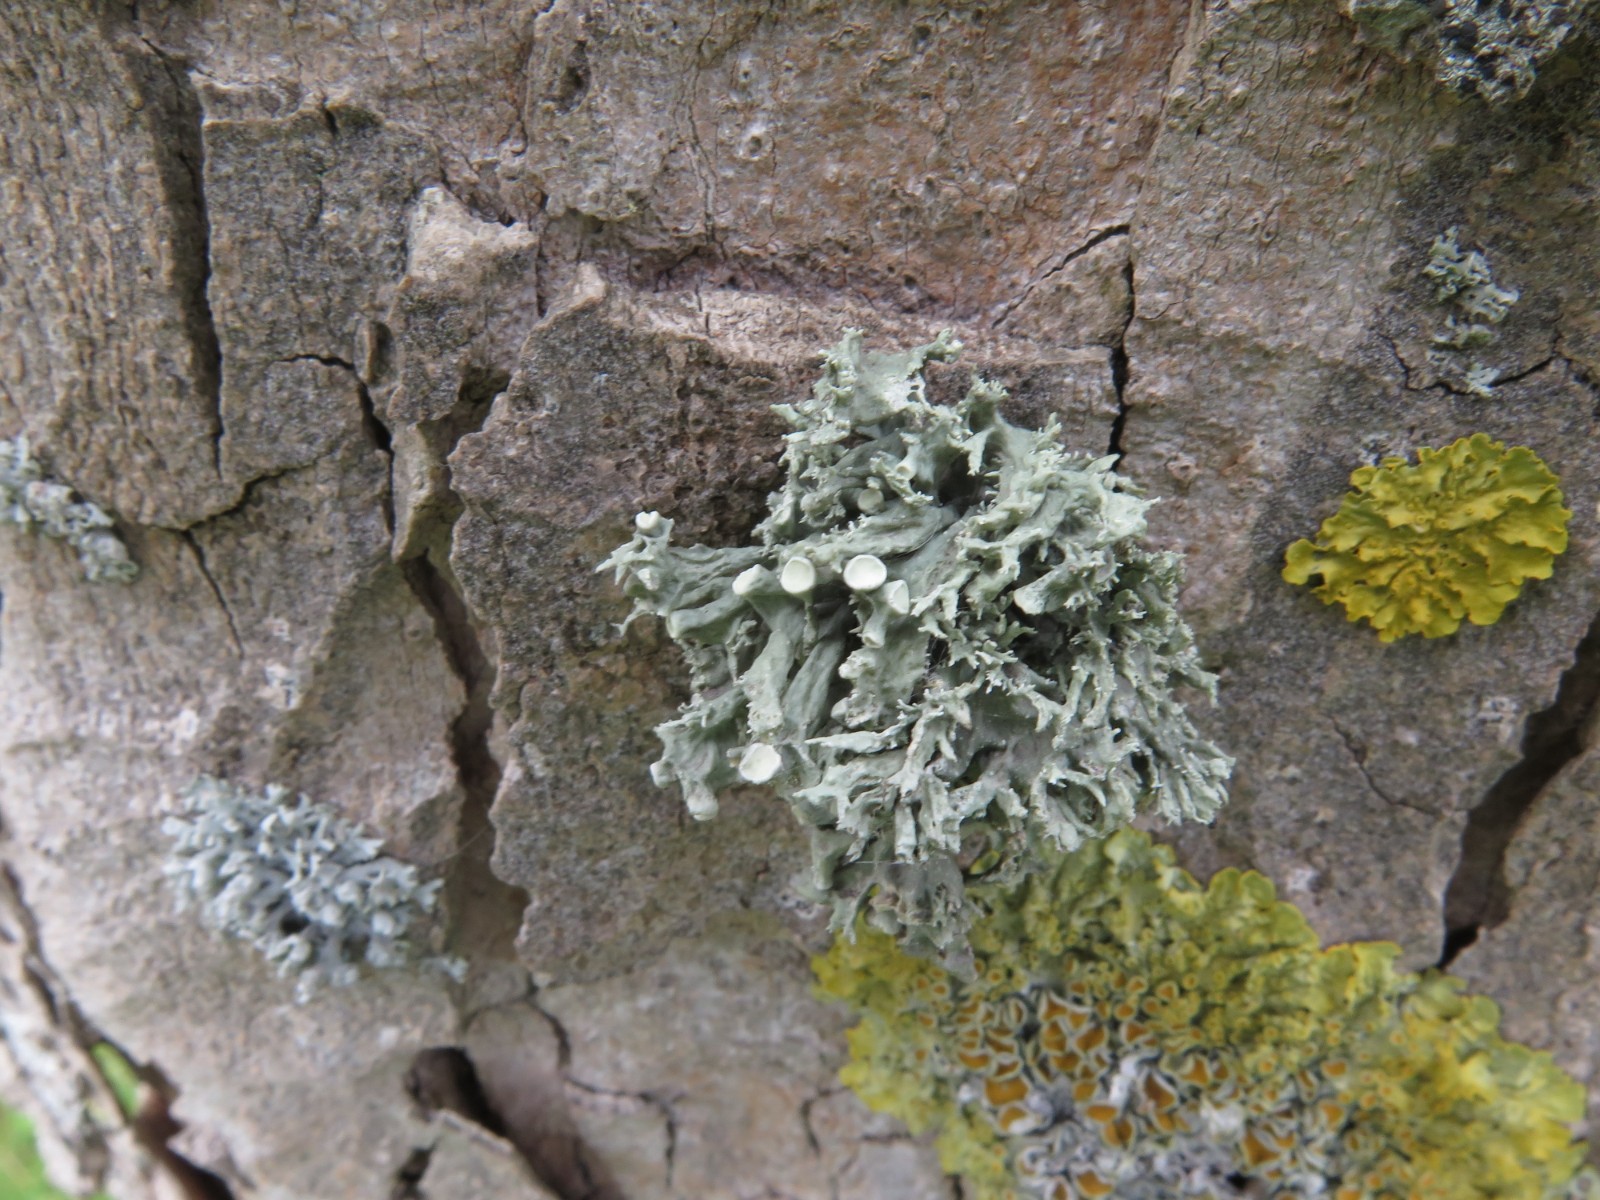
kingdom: Fungi
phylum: Ascomycota
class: Lecanoromycetes
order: Lecanorales
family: Ramalinaceae
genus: Ramalina
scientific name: Ramalina fastigiata
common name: tue-grenlav
